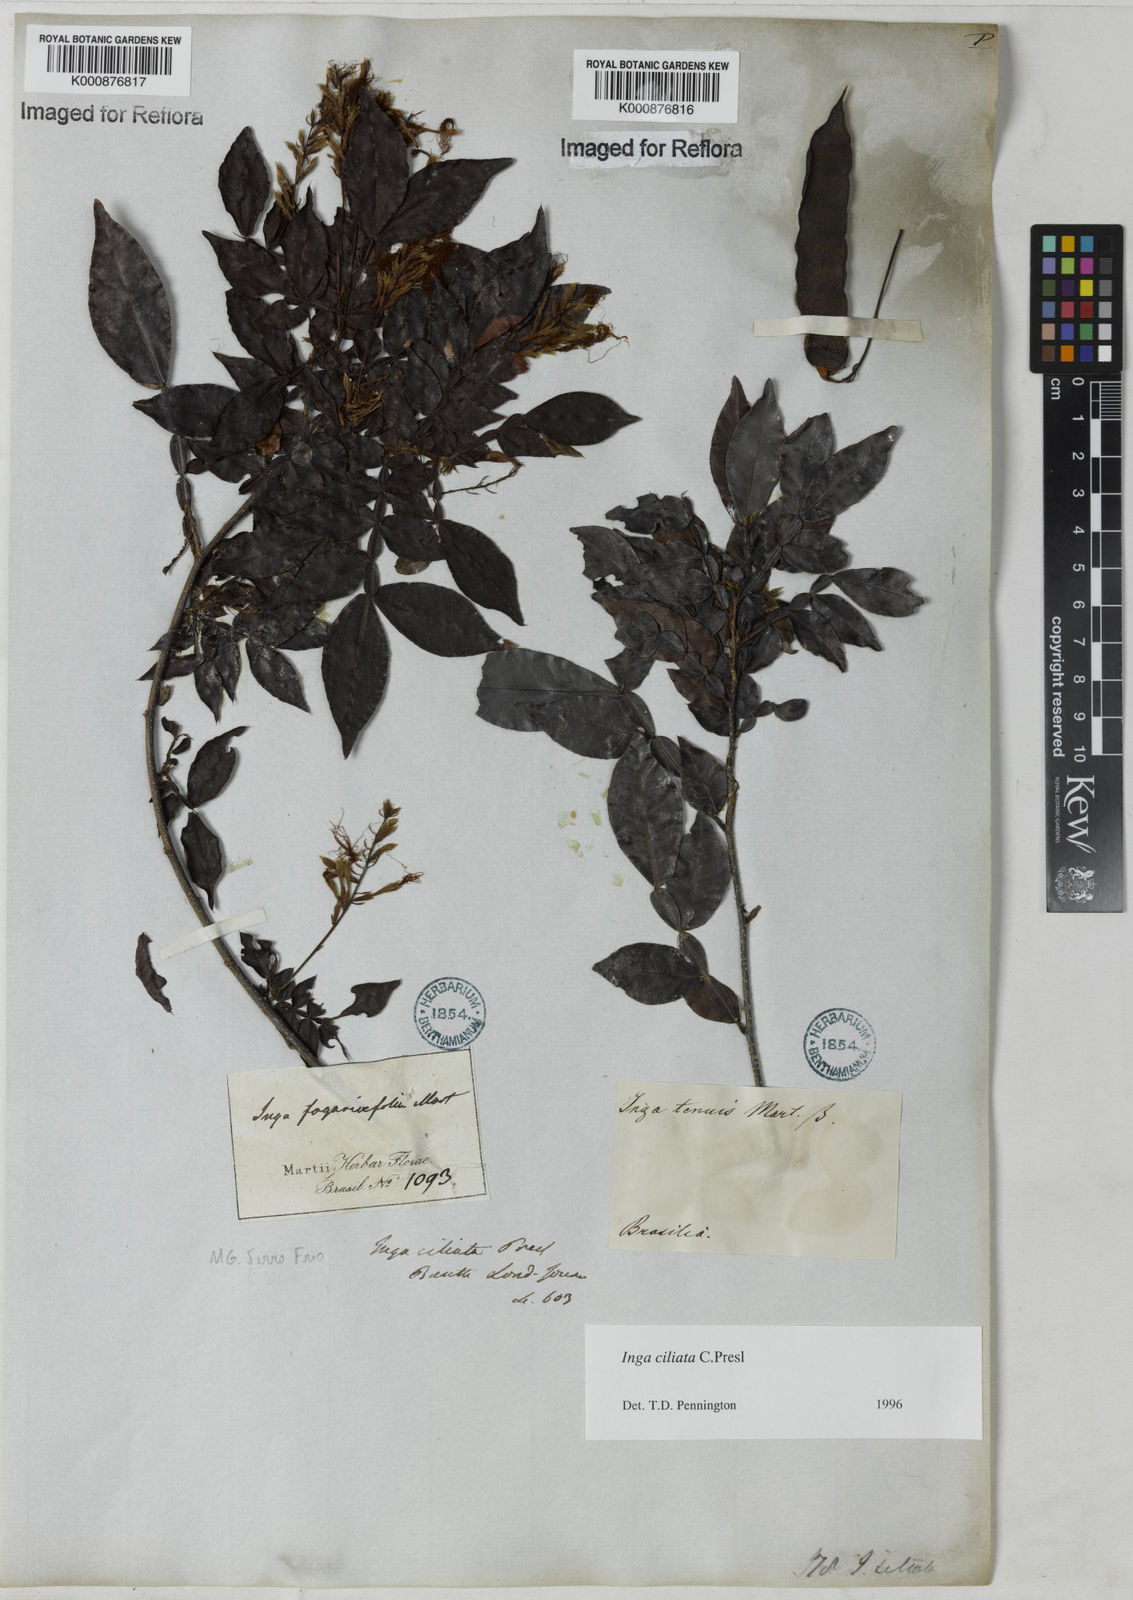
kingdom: Plantae
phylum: Tracheophyta
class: Magnoliopsida
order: Fabales
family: Fabaceae
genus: Inga
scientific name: Inga ciliata
